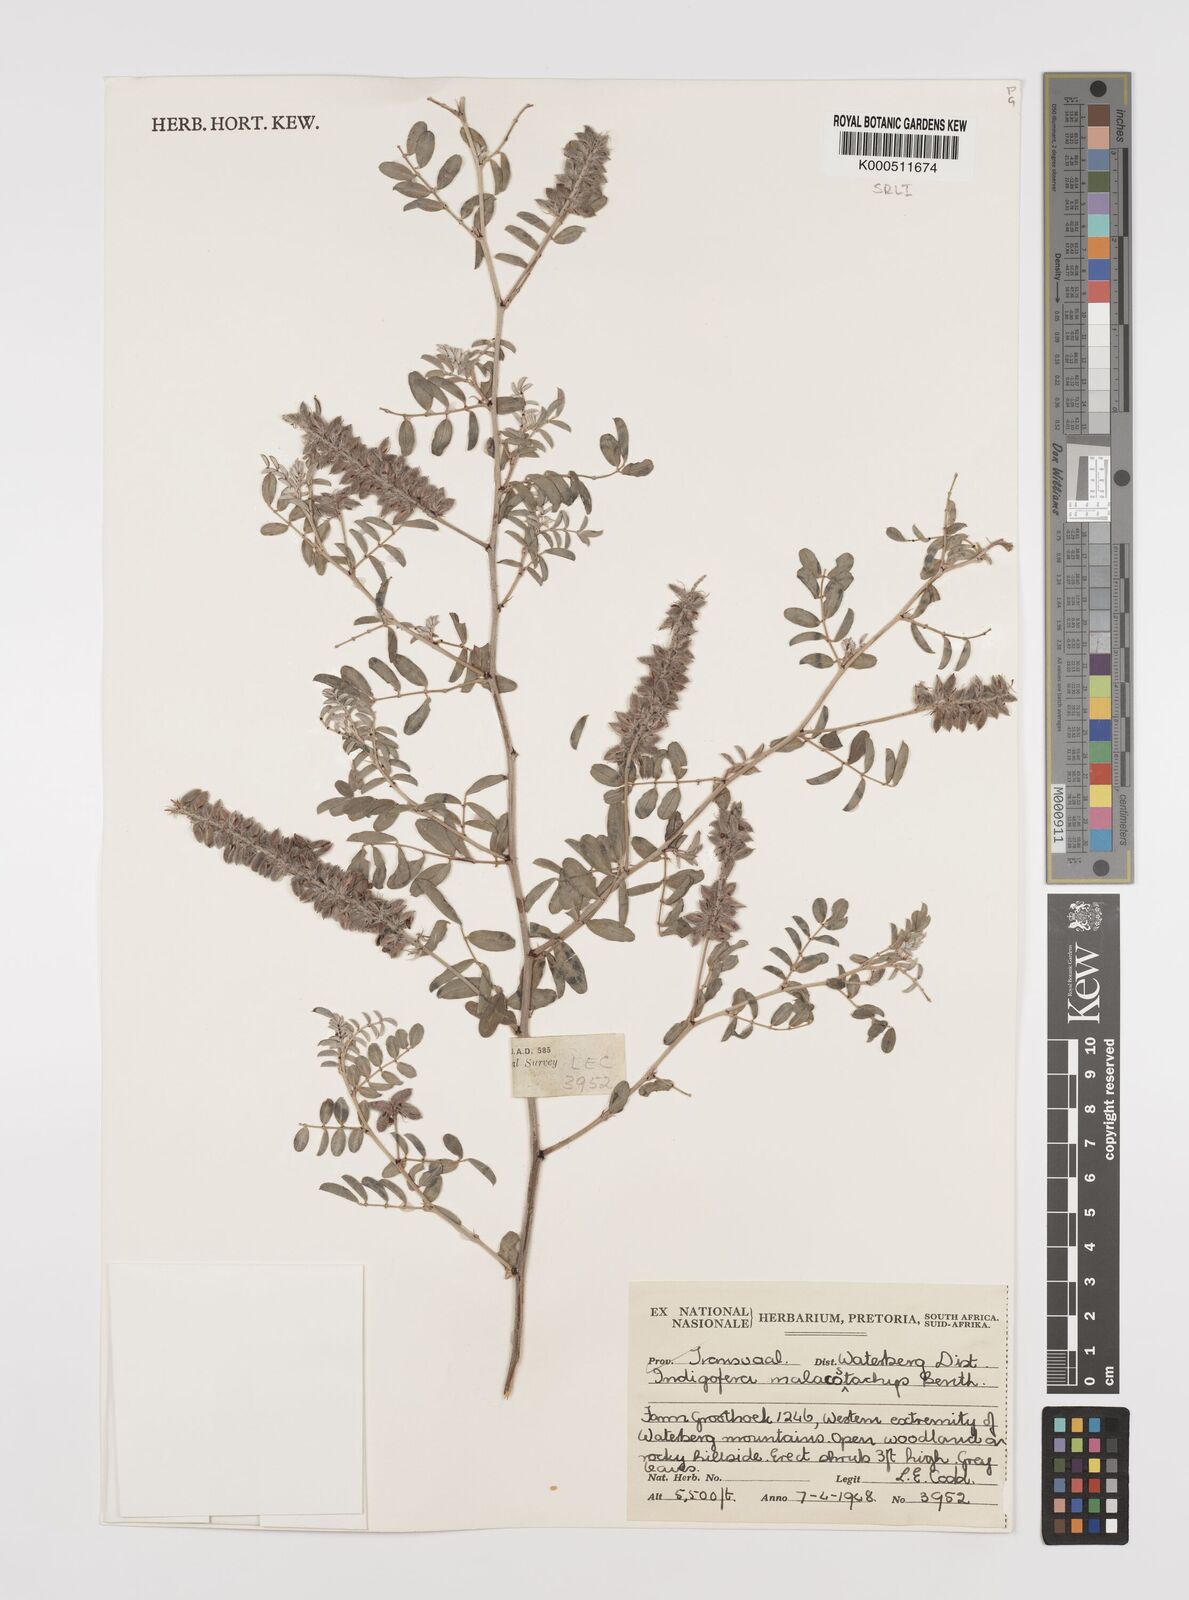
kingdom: Plantae
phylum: Tracheophyta
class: Magnoliopsida
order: Fabales
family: Fabaceae
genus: Indigofera
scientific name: Indigofera
